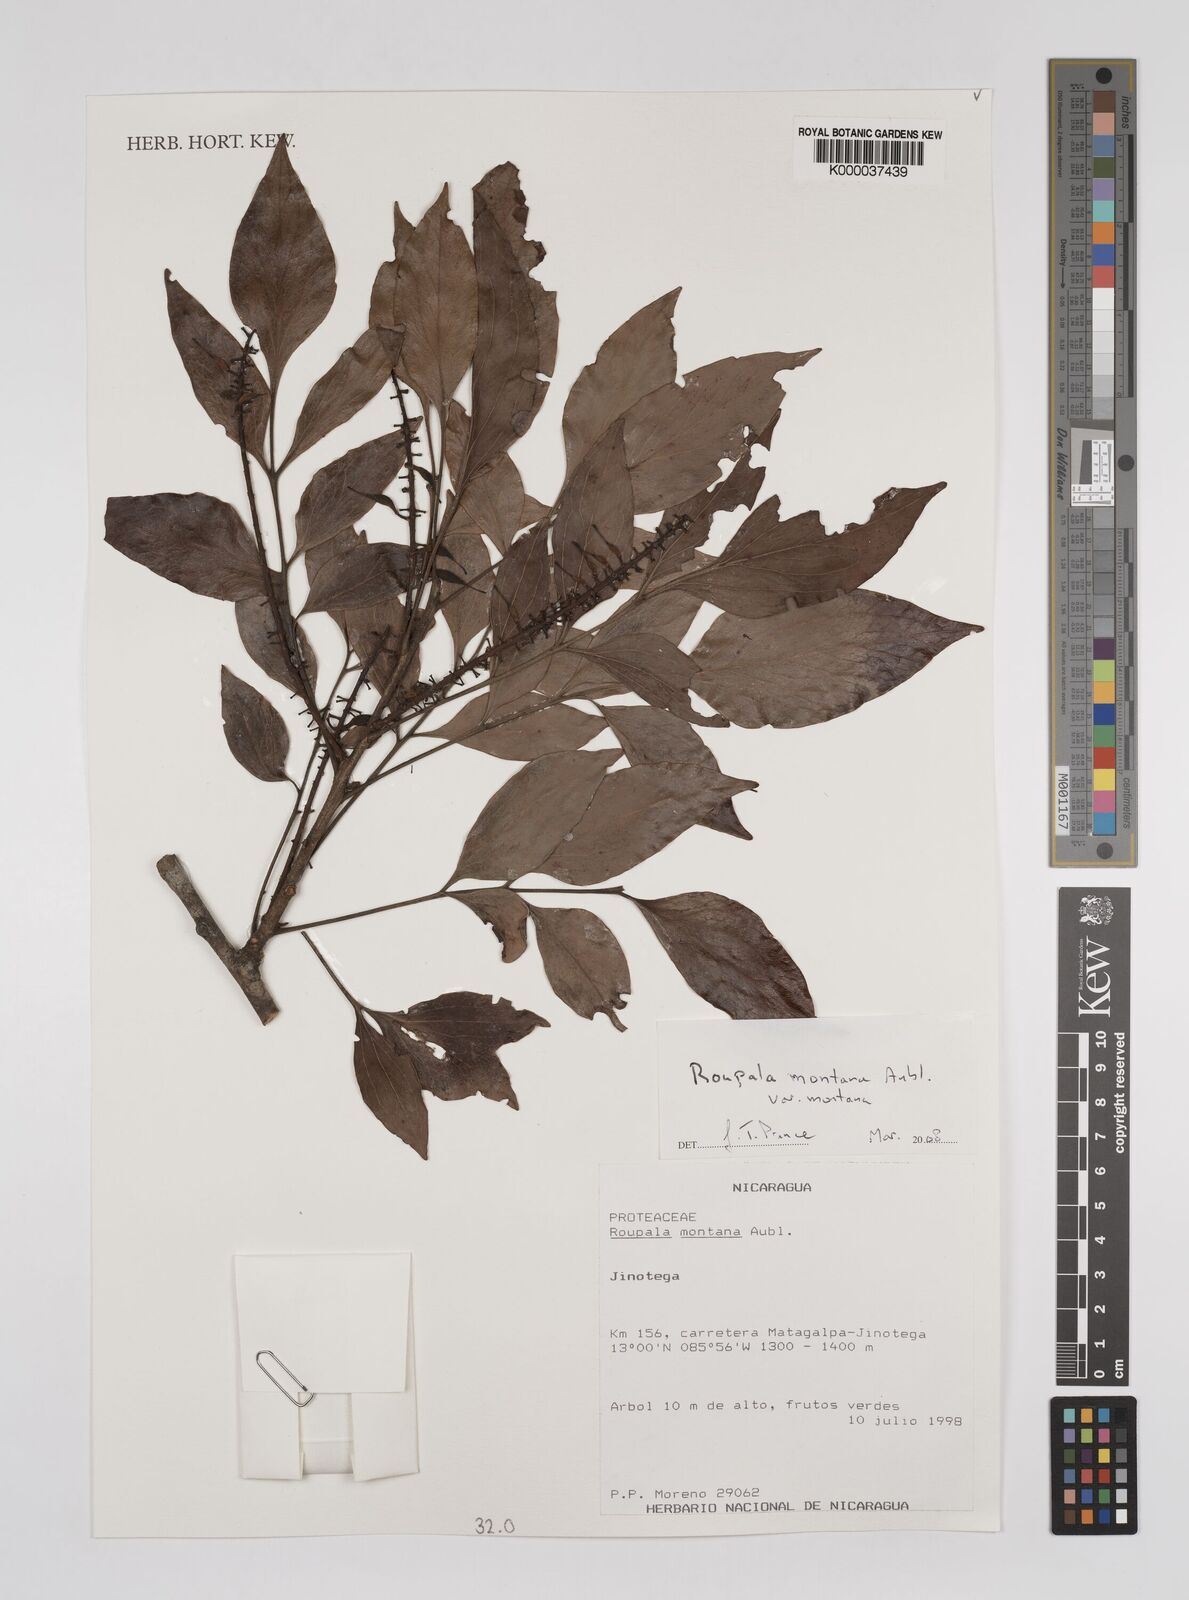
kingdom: Plantae
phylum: Tracheophyta
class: Magnoliopsida
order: Proteales
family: Proteaceae
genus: Roupala
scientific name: Roupala montana
